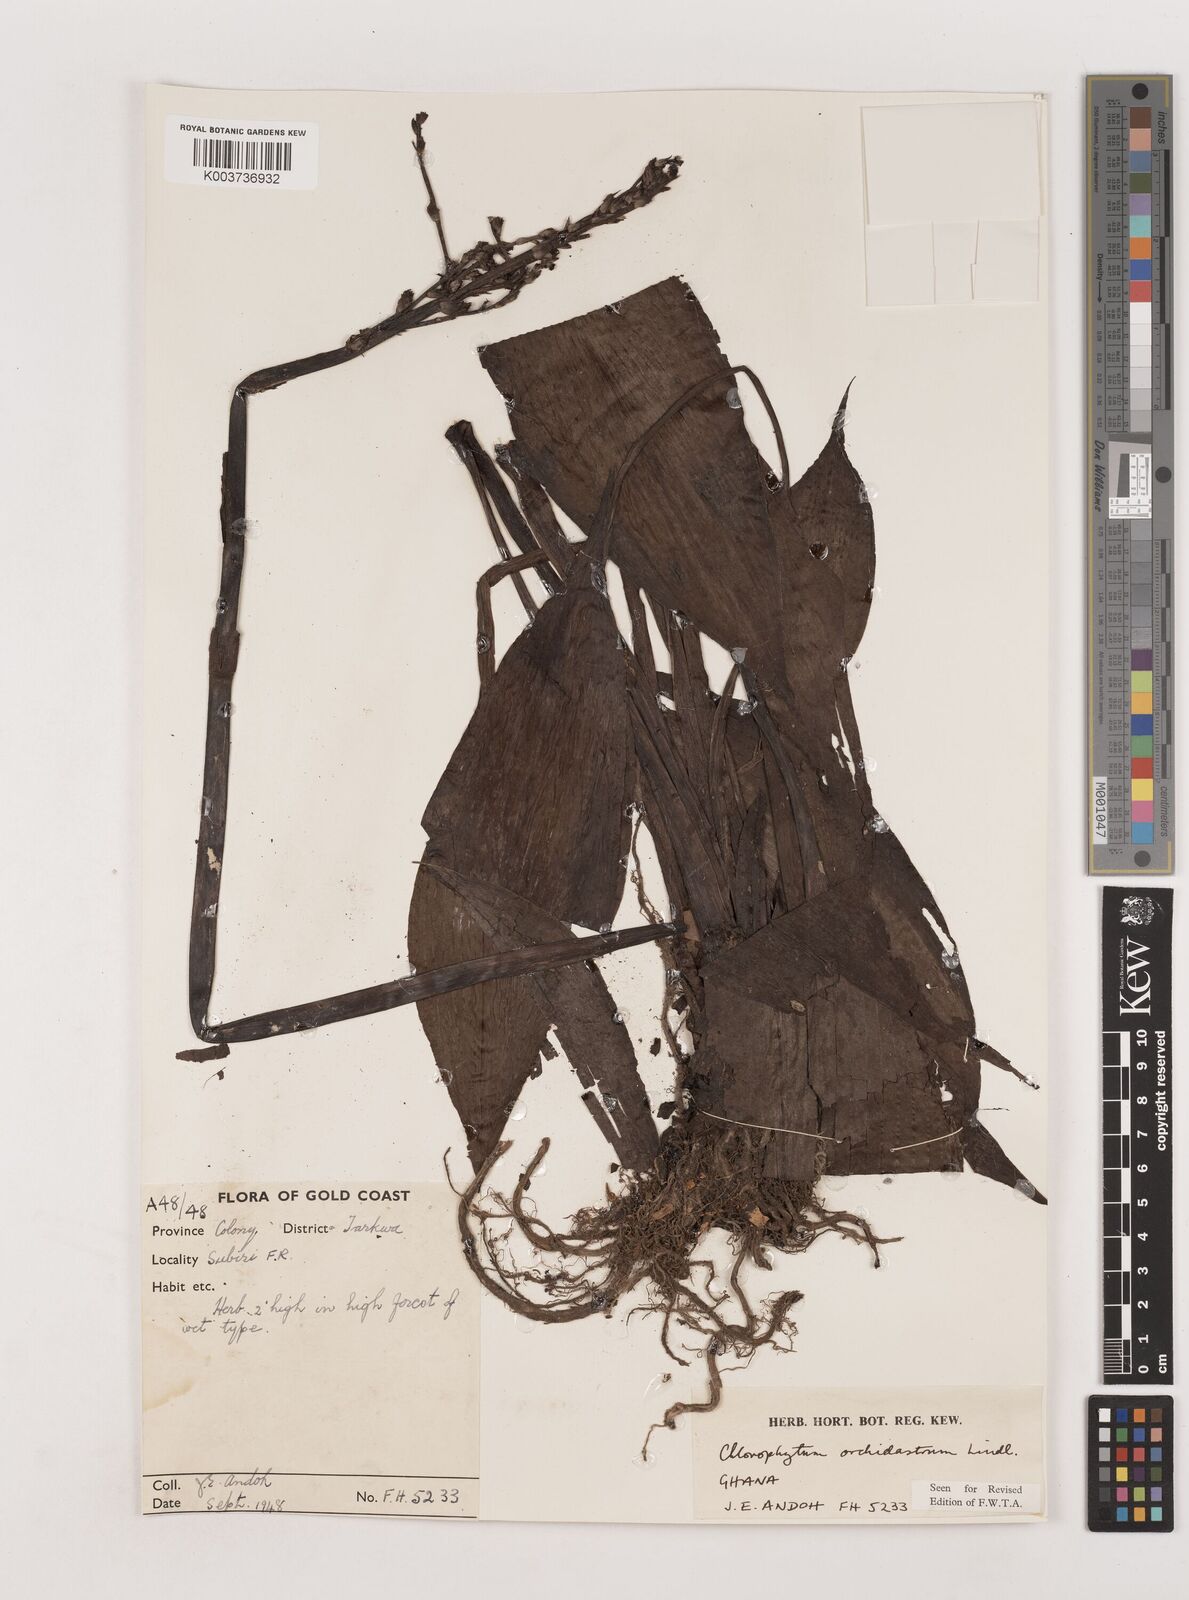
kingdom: Plantae
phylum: Tracheophyta
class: Liliopsida
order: Asparagales
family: Asparagaceae
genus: Chlorophytum
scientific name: Chlorophytum orchidastrum
